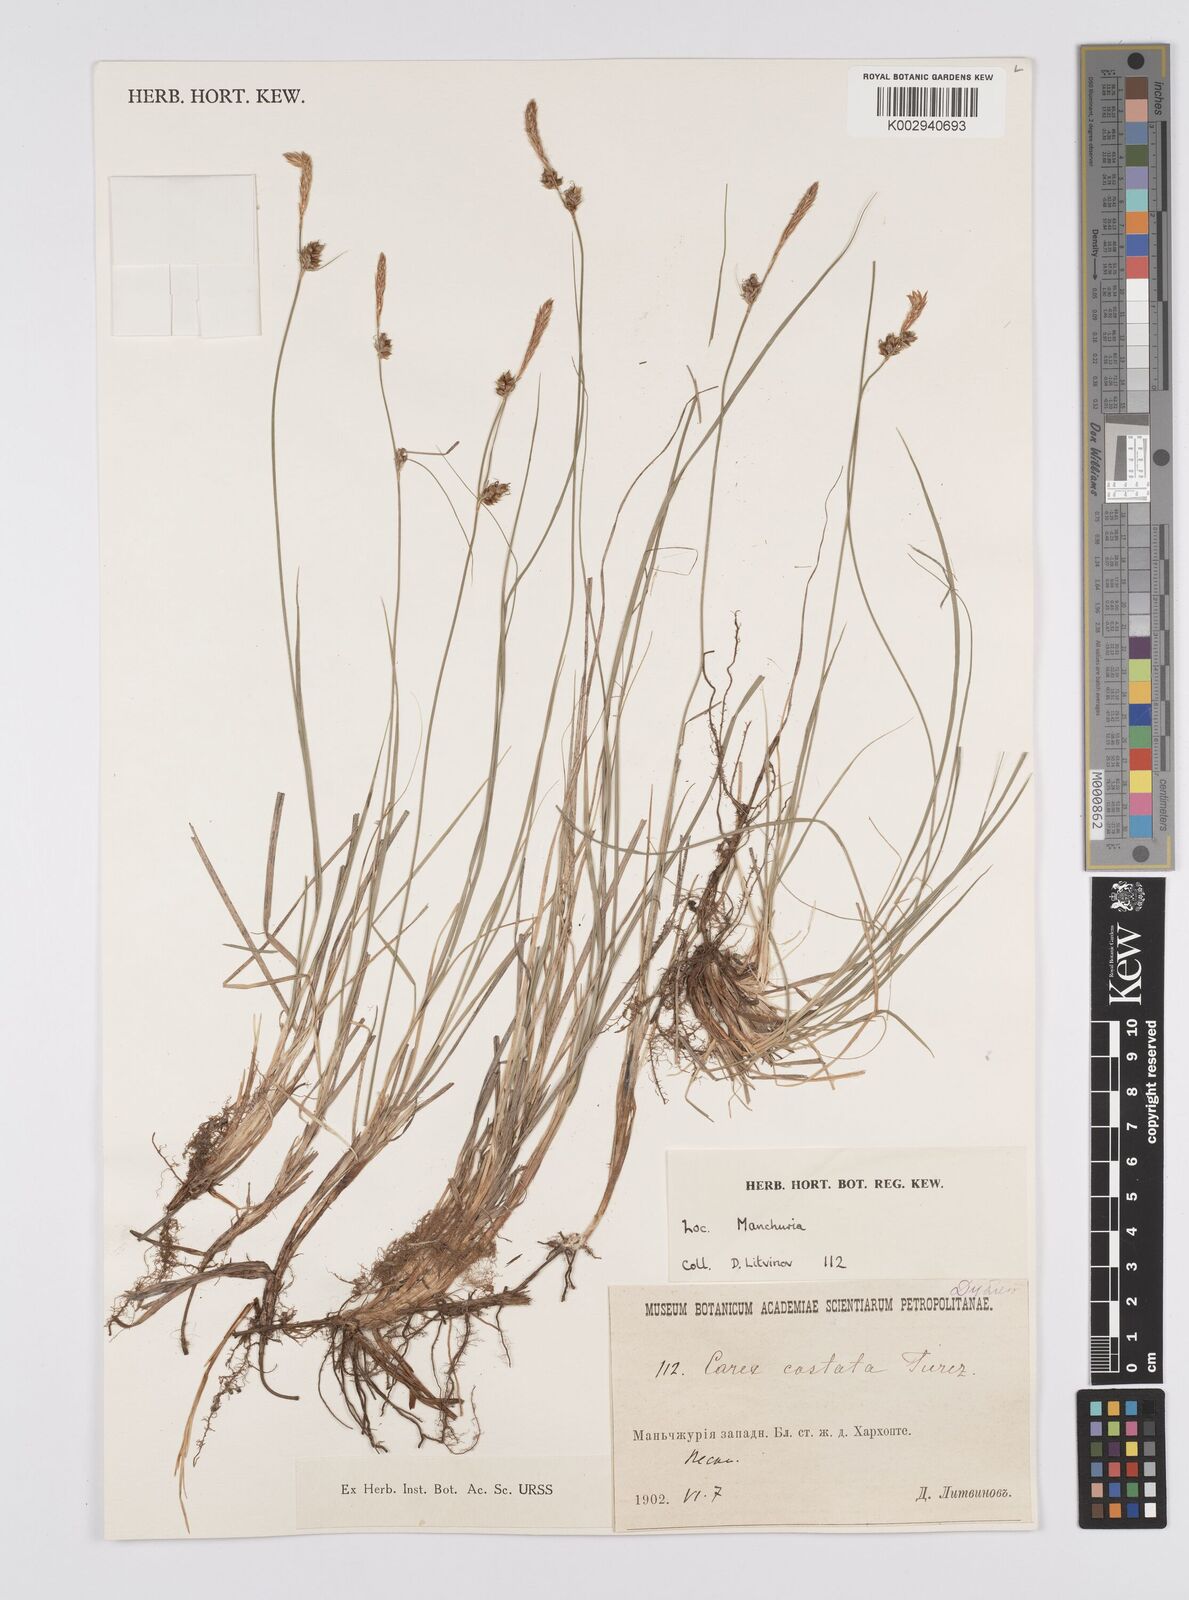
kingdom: Plantae
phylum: Tracheophyta
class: Liliopsida
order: Poales
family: Cyperaceae
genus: Carex
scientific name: Carex supina
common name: Lying-back sedge
